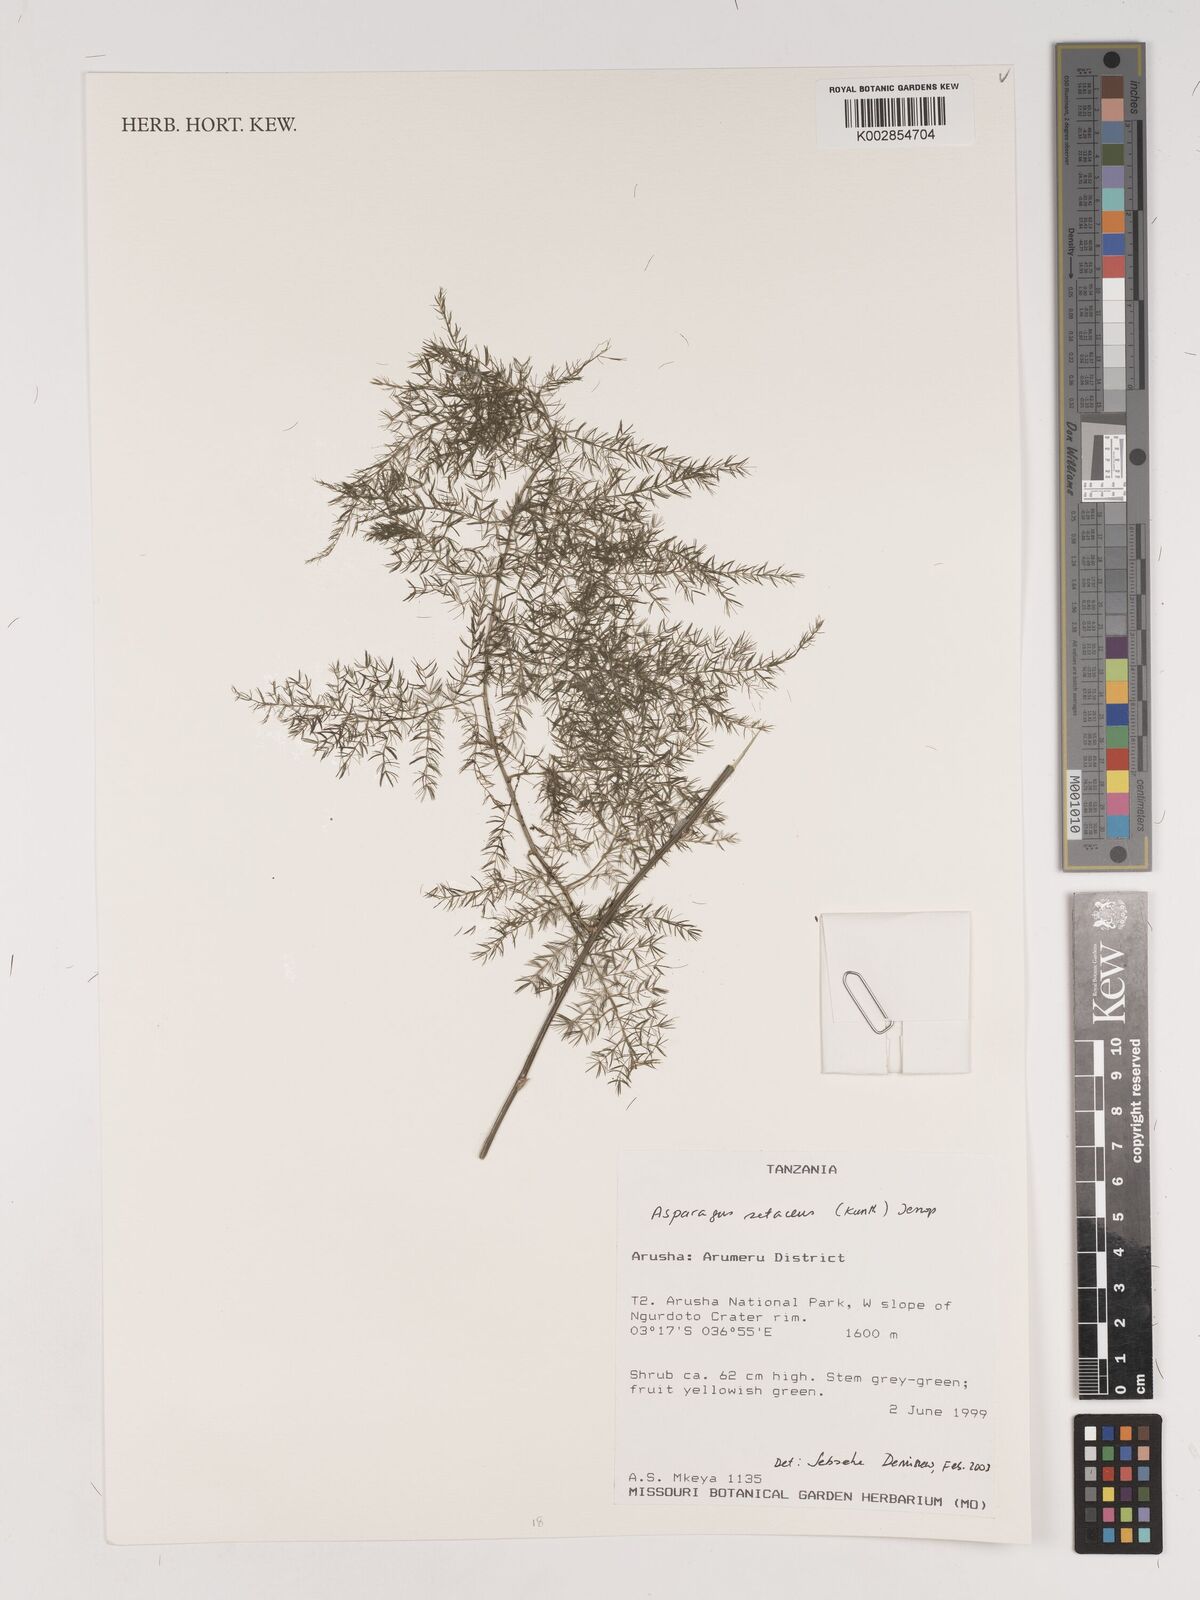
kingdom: Plantae
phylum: Tracheophyta
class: Liliopsida
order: Asparagales
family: Asparagaceae
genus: Asparagus
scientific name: Asparagus setaceus
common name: Common asparagus fern
